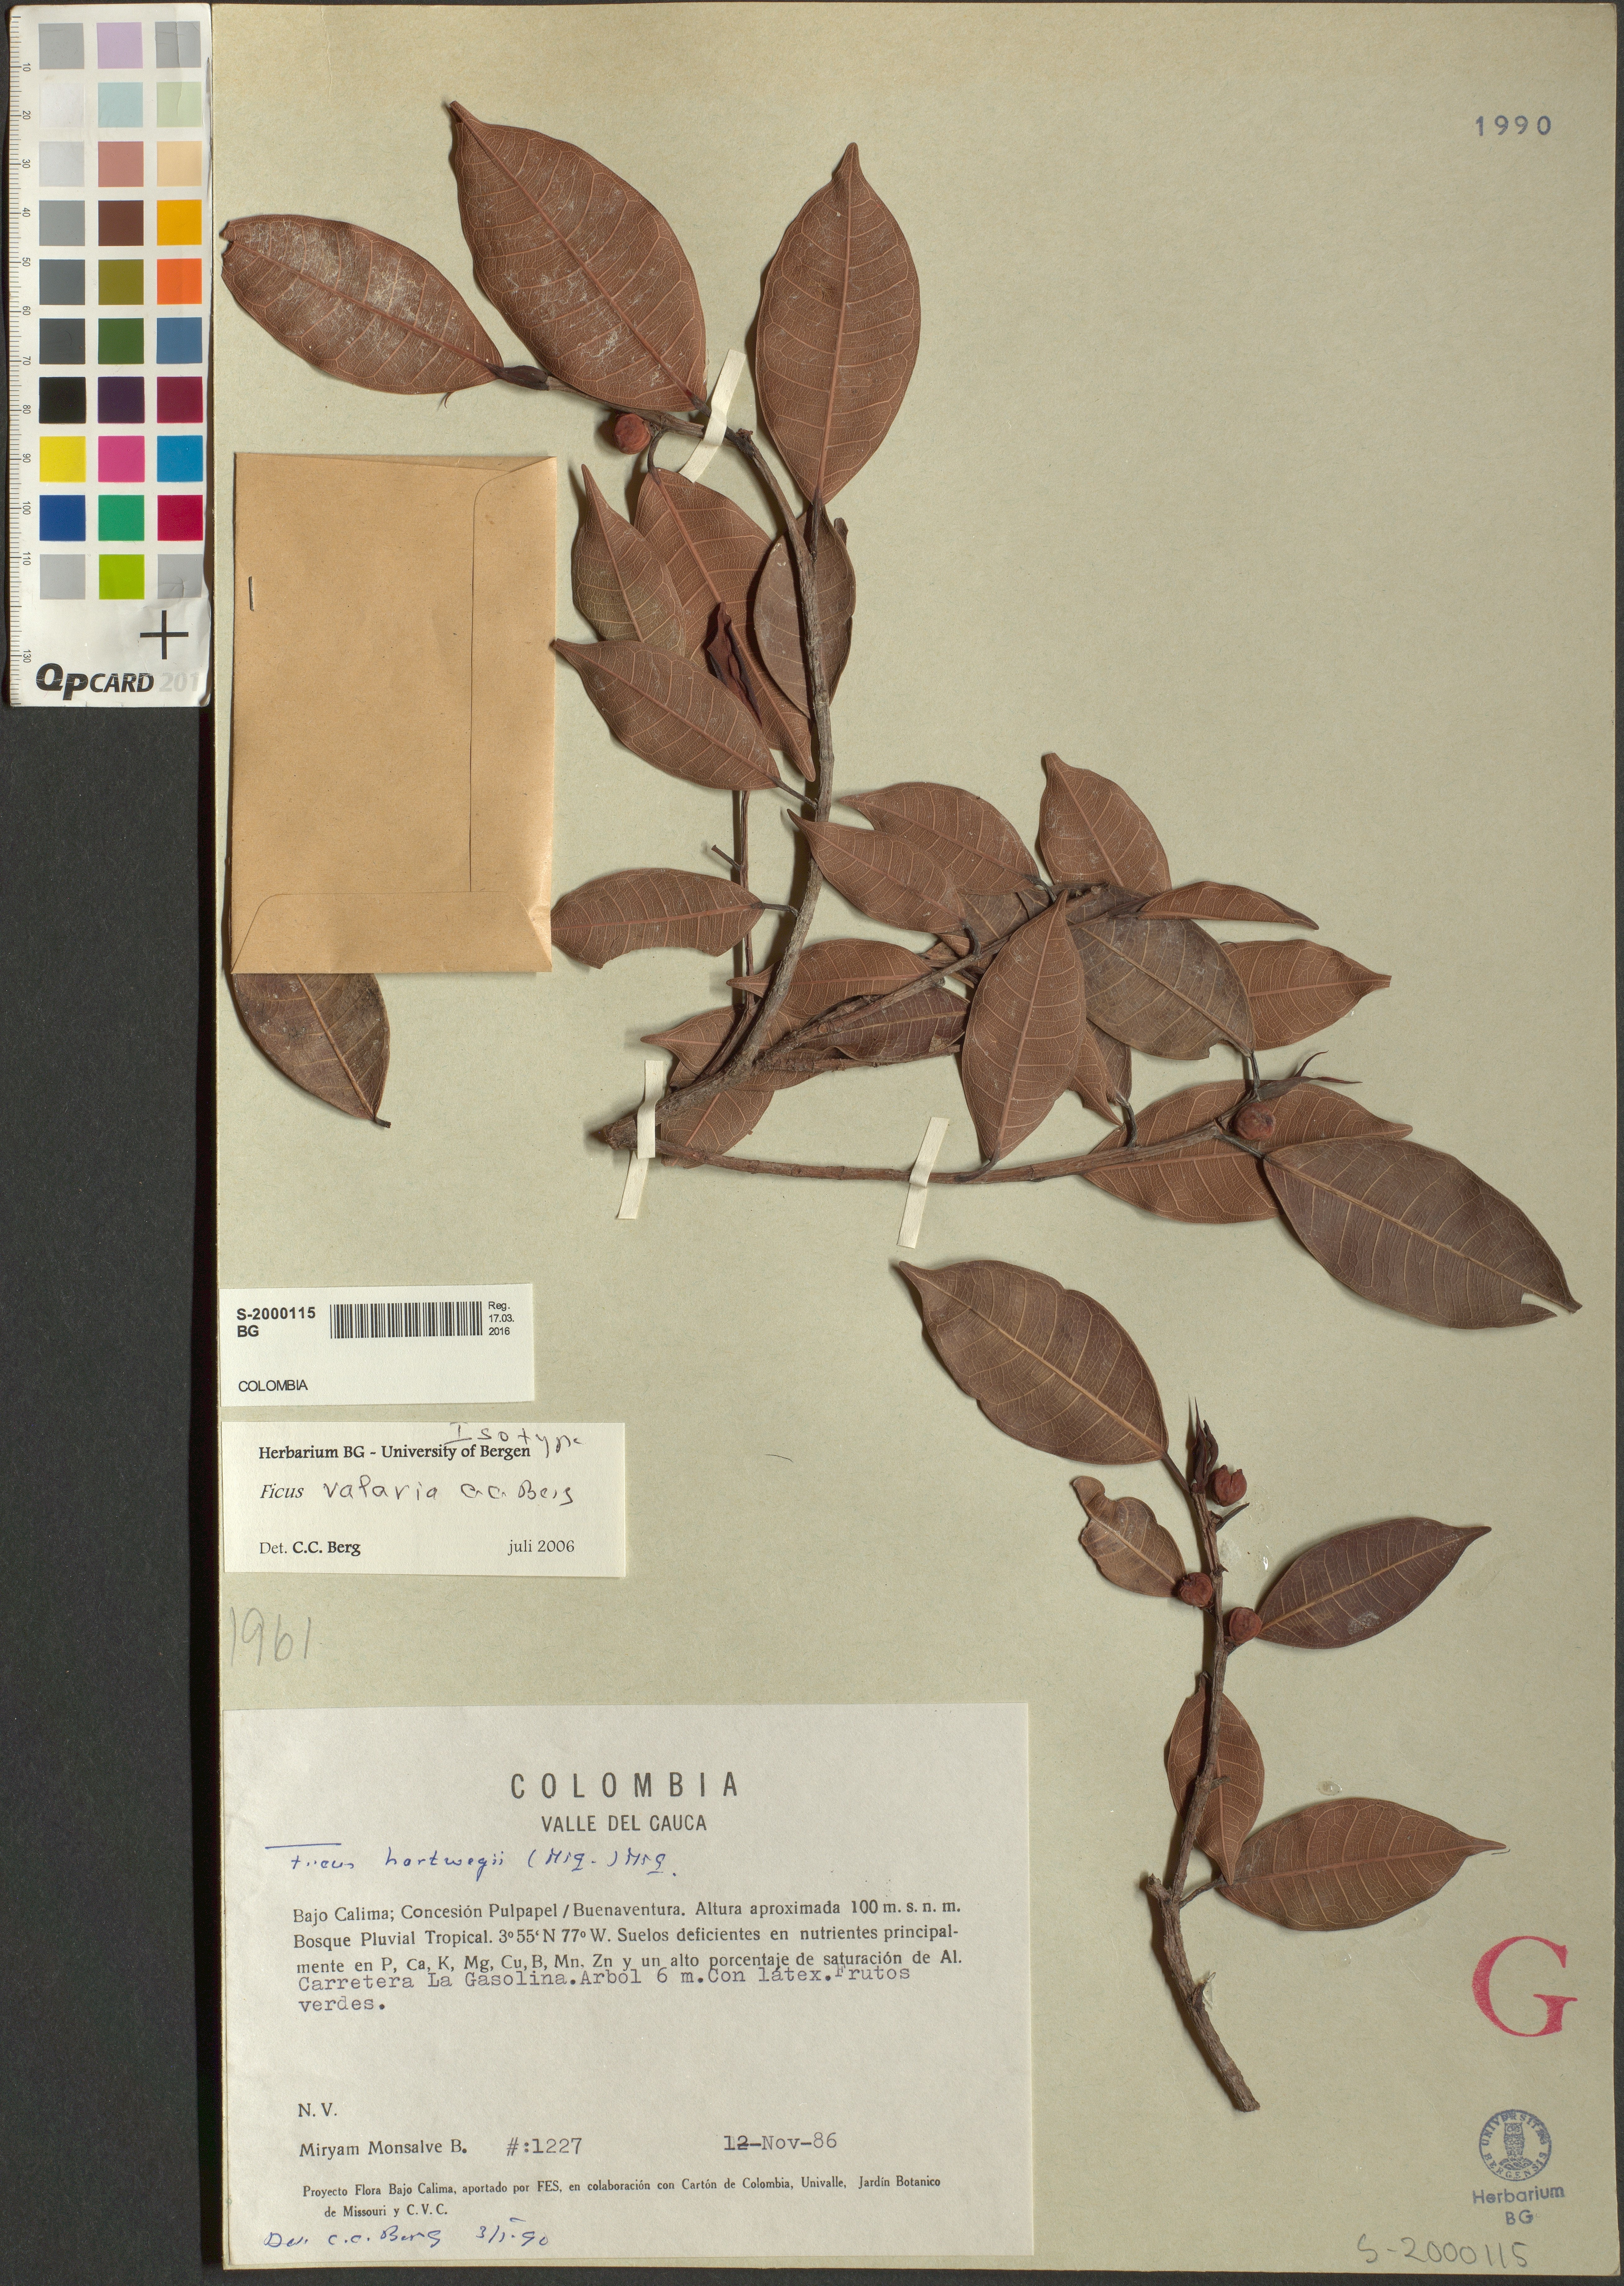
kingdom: Plantae
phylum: Tracheophyta
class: Magnoliopsida
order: Rosales
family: Moraceae
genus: Ficus
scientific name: Ficus valaria
